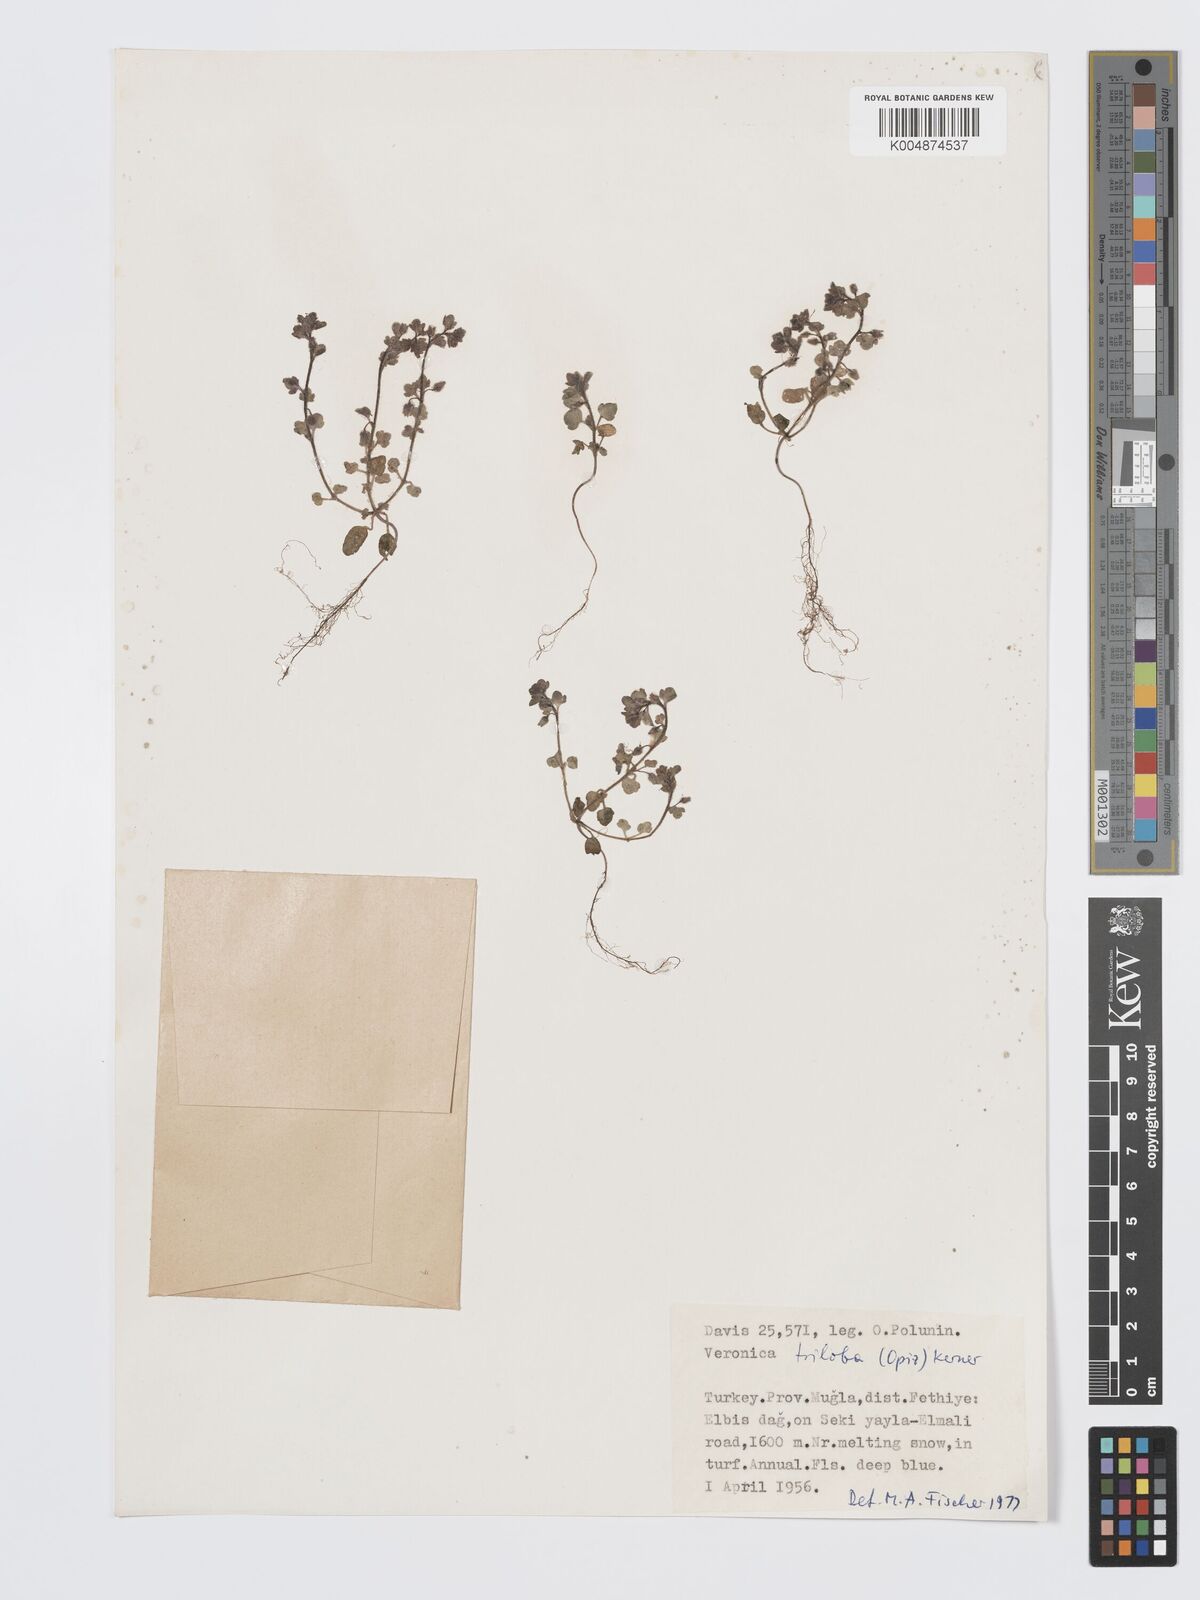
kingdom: Plantae
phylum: Tracheophyta
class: Magnoliopsida
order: Lamiales
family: Plantaginaceae
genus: Veronica
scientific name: Veronica triloba
